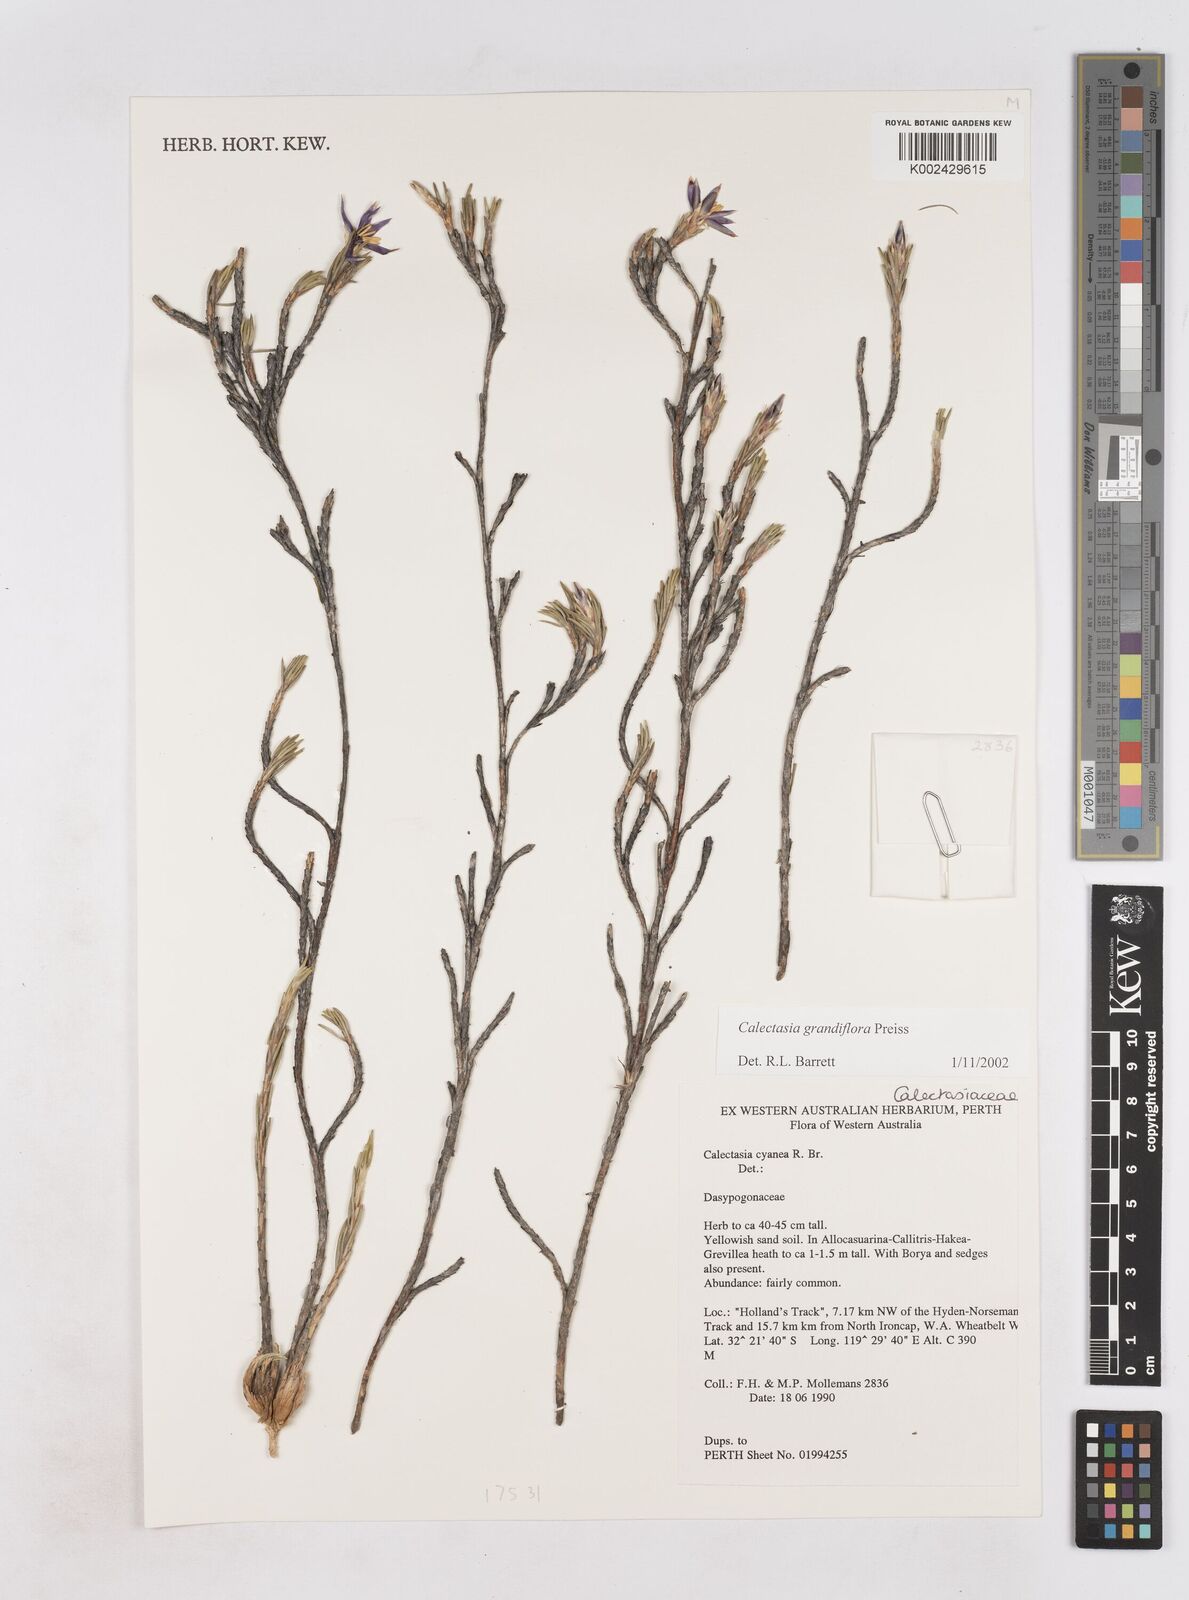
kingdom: Plantae
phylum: Tracheophyta
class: Liliopsida
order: Arecales
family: Dasypogonaceae
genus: Calectasia
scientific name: Calectasia grandiflora
